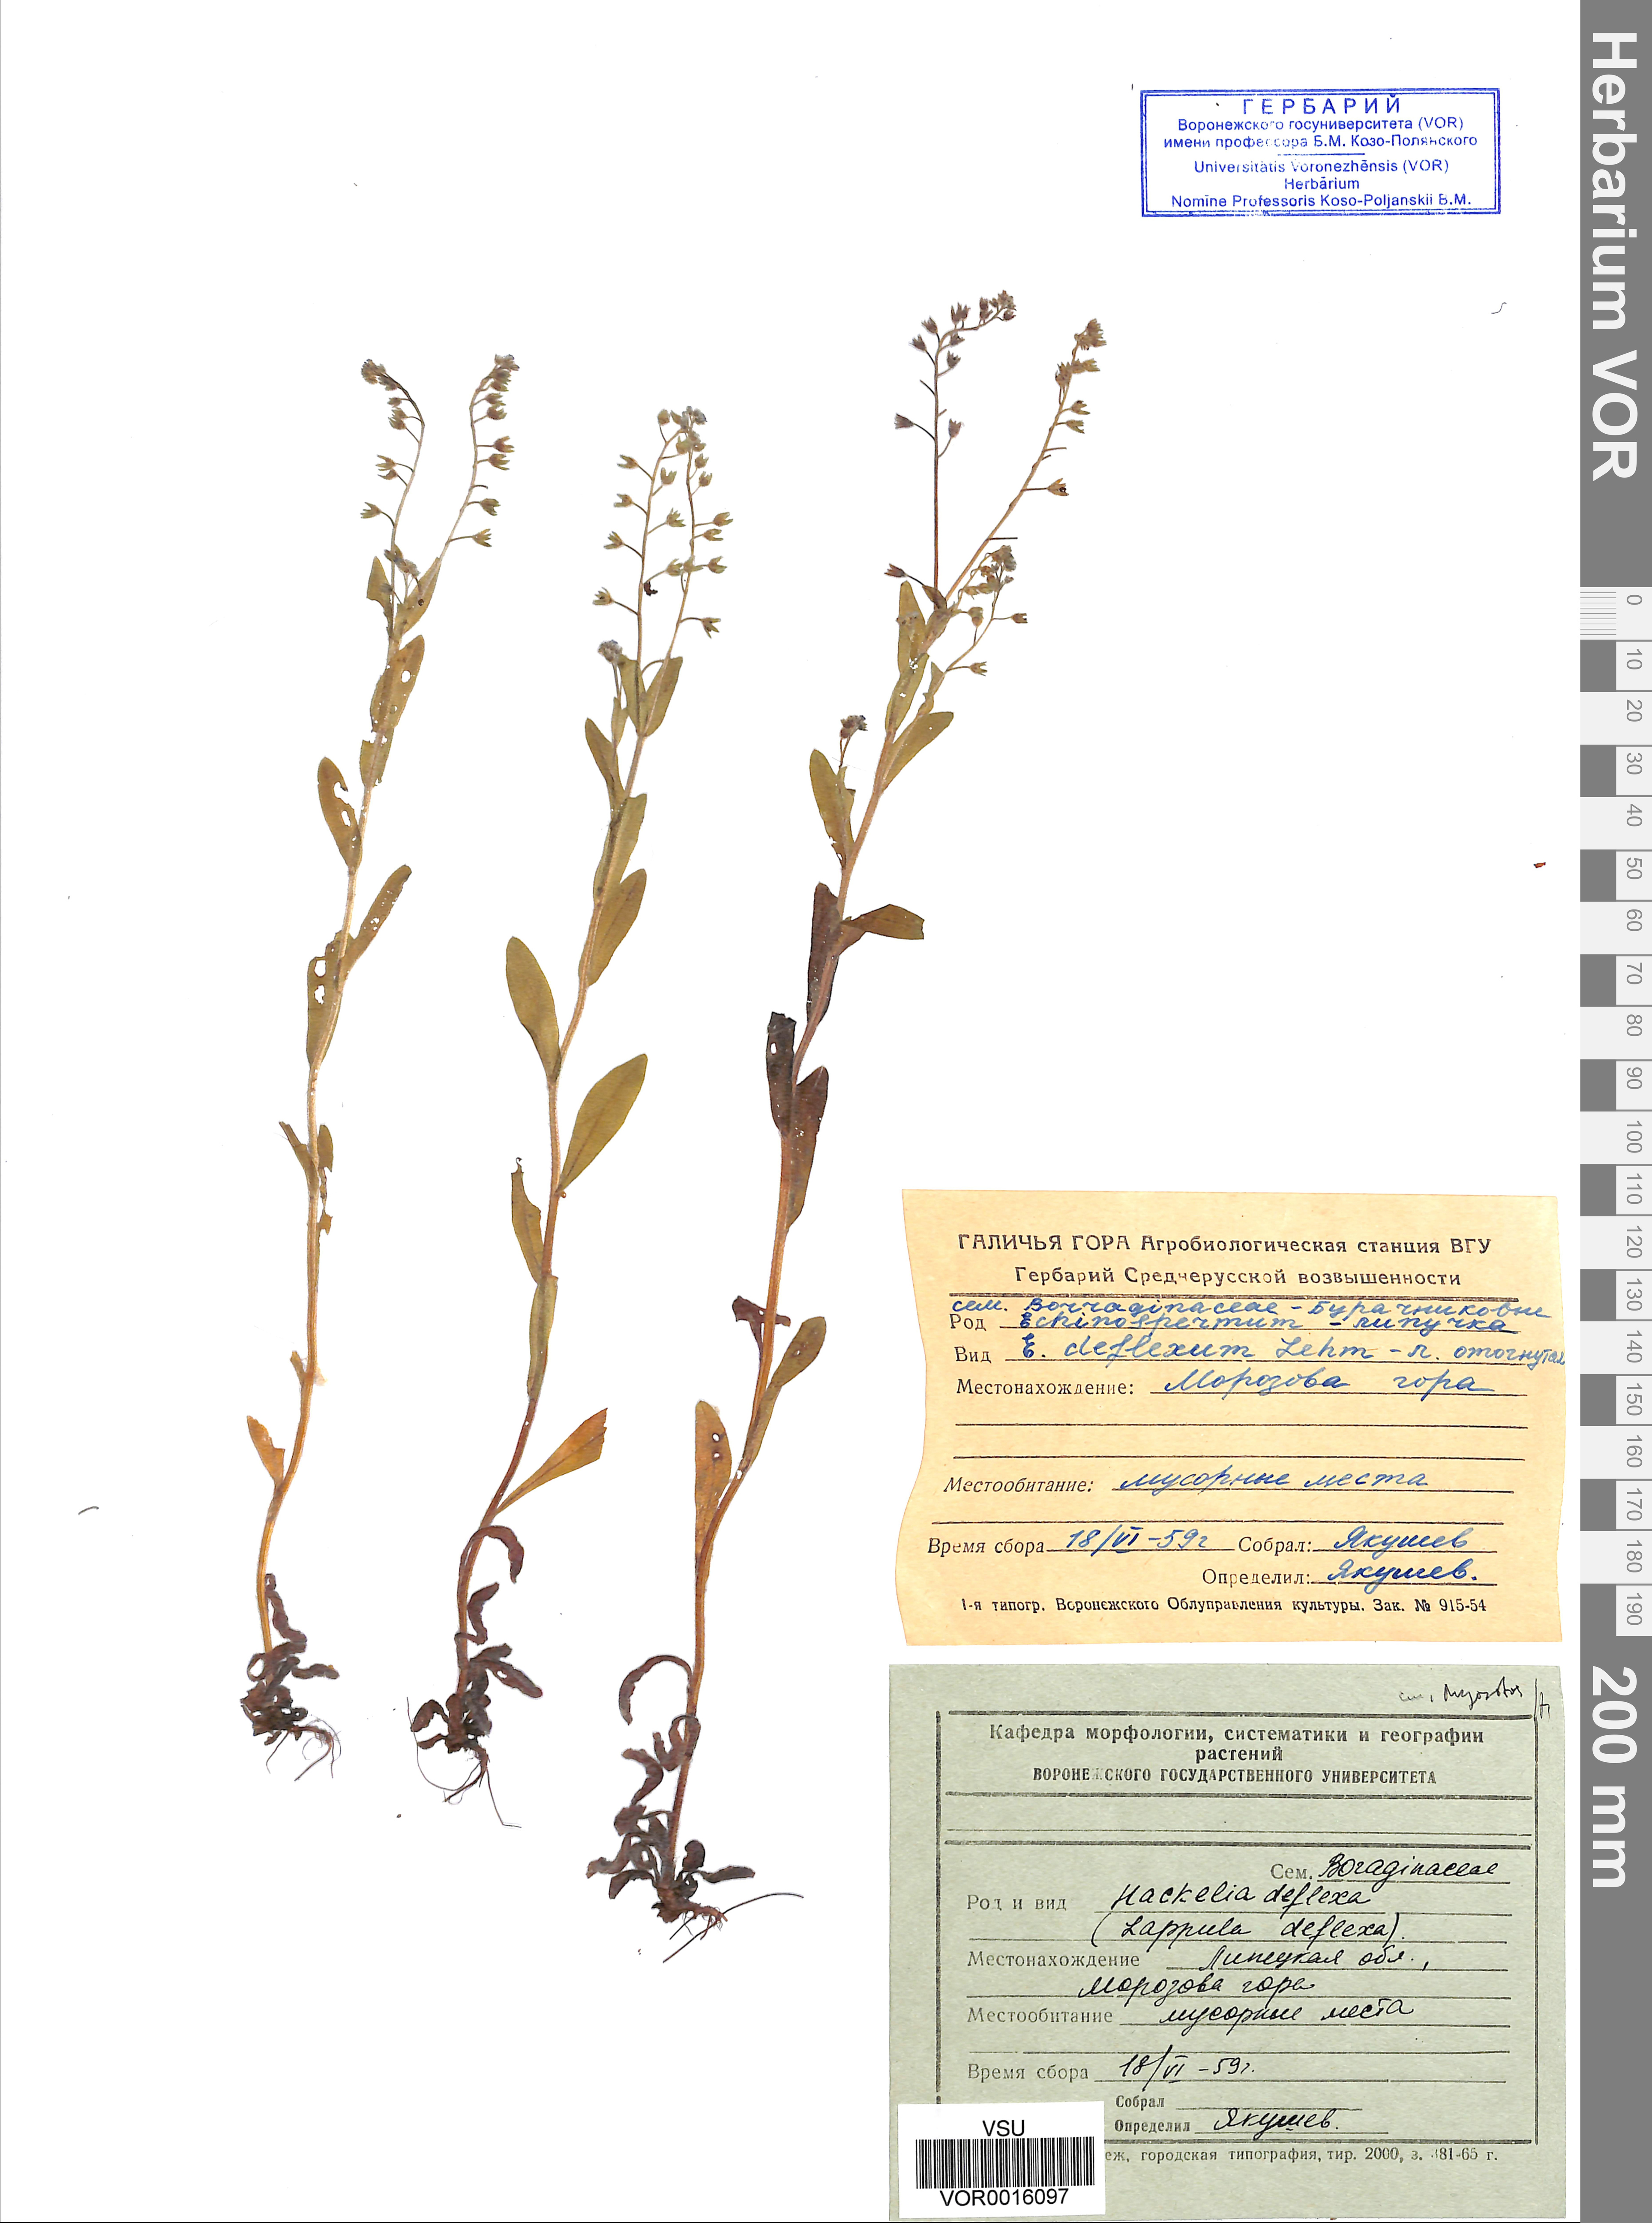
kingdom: Plantae
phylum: Tracheophyta
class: Magnoliopsida
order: Boraginales
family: Boraginaceae
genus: Hackelia
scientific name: Hackelia deflexa
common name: Nodding stickseed
